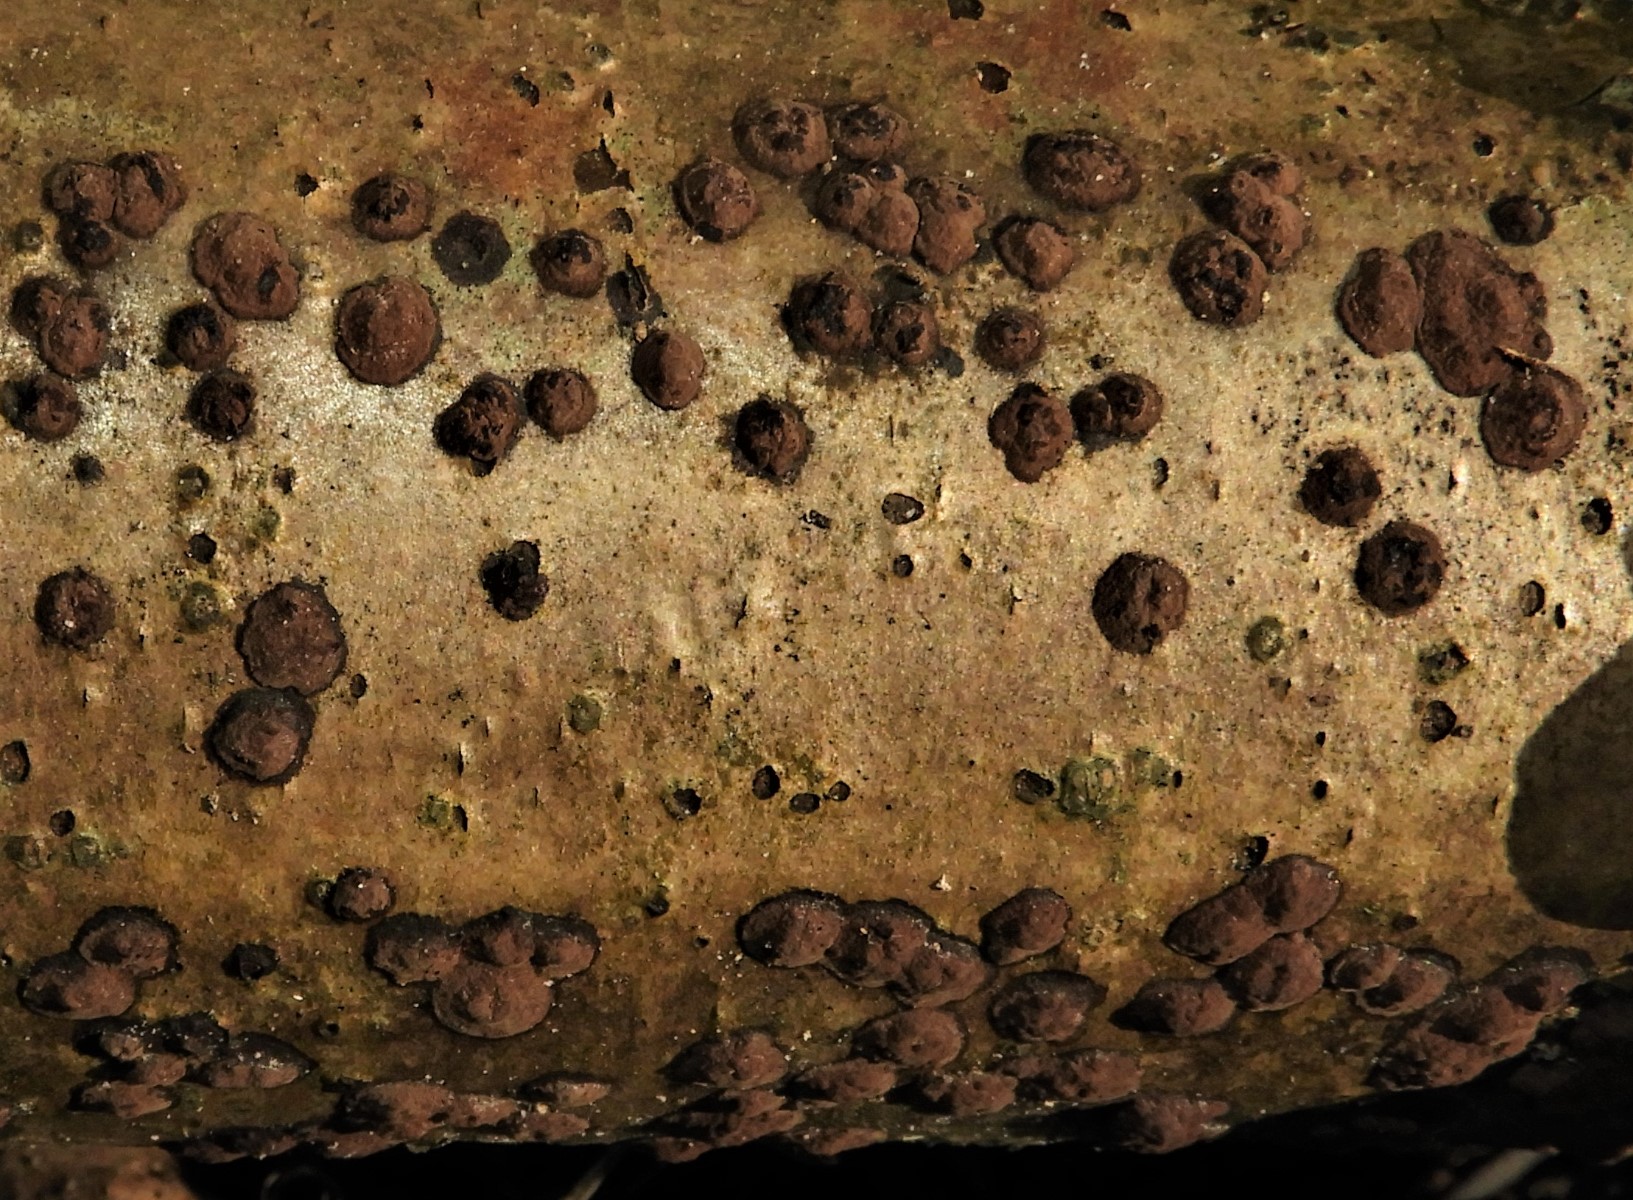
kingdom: Fungi
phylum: Ascomycota
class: Sordariomycetes
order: Xylariales
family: Hypoxylaceae
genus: Hypoxylon
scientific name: Hypoxylon fuscum
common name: kegleformet kulbær
